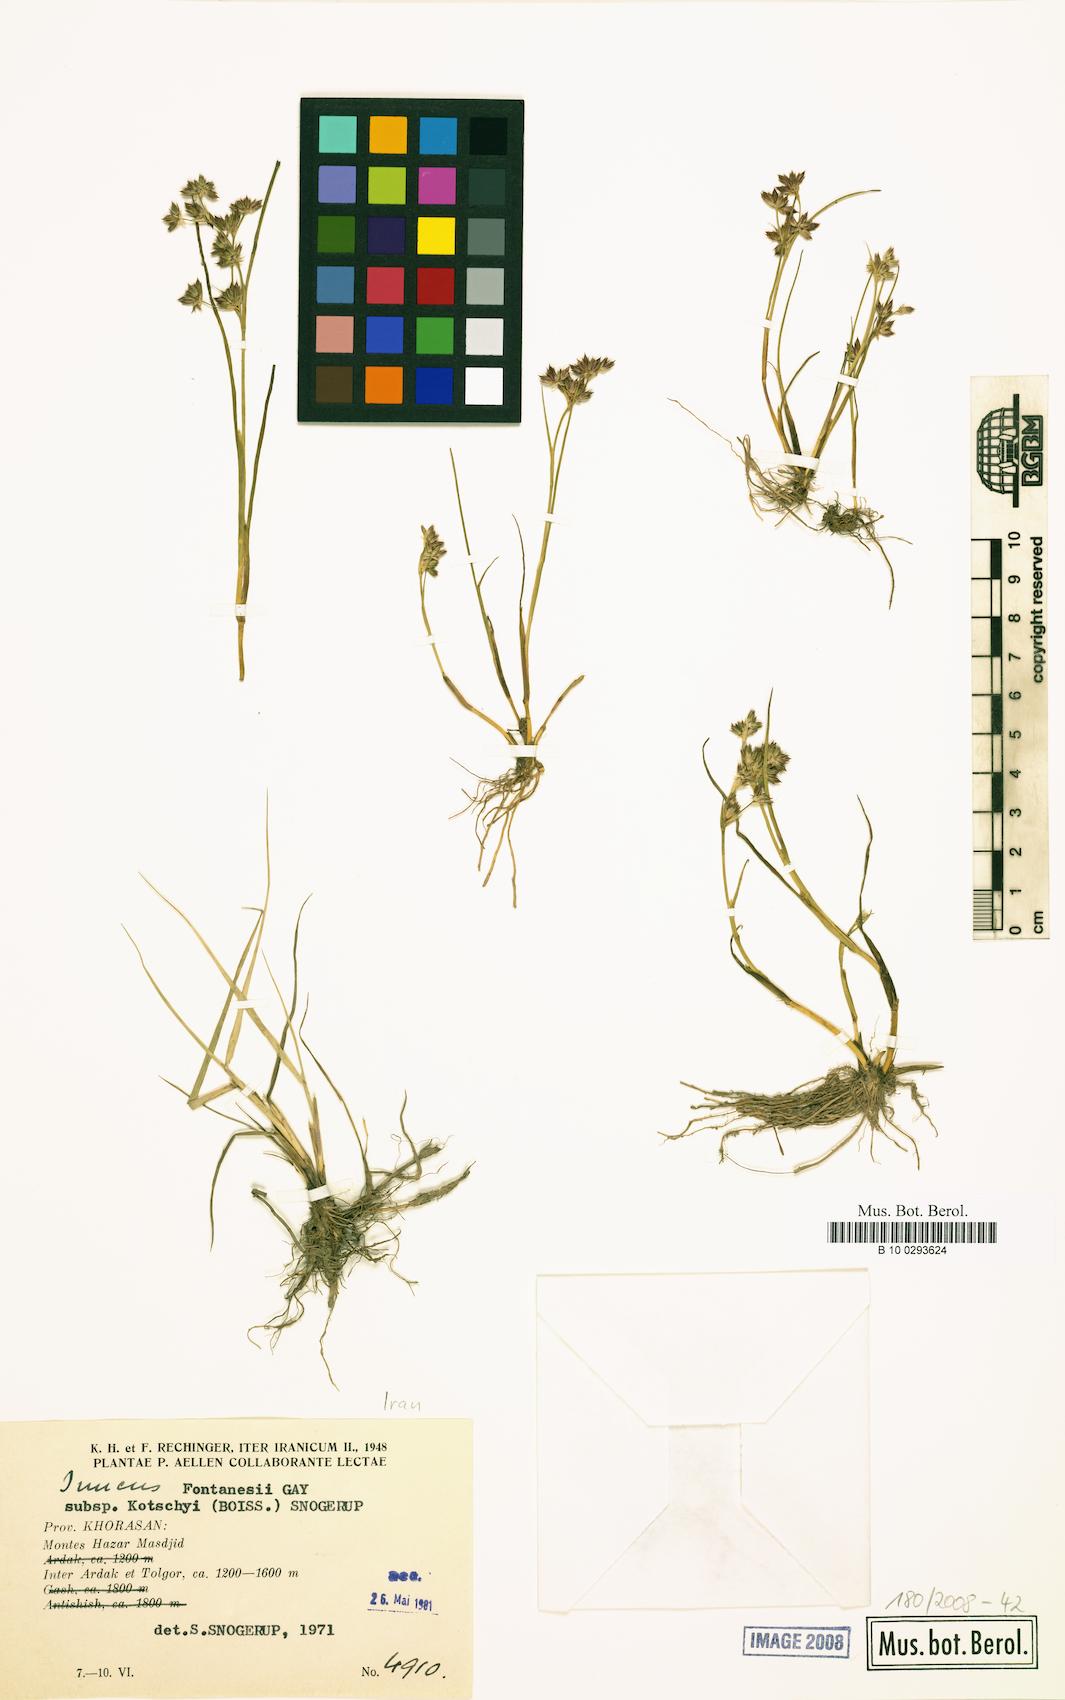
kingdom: Plantae
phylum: Tracheophyta
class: Liliopsida
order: Poales
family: Juncaceae
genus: Juncus
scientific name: Juncus fontanesii
